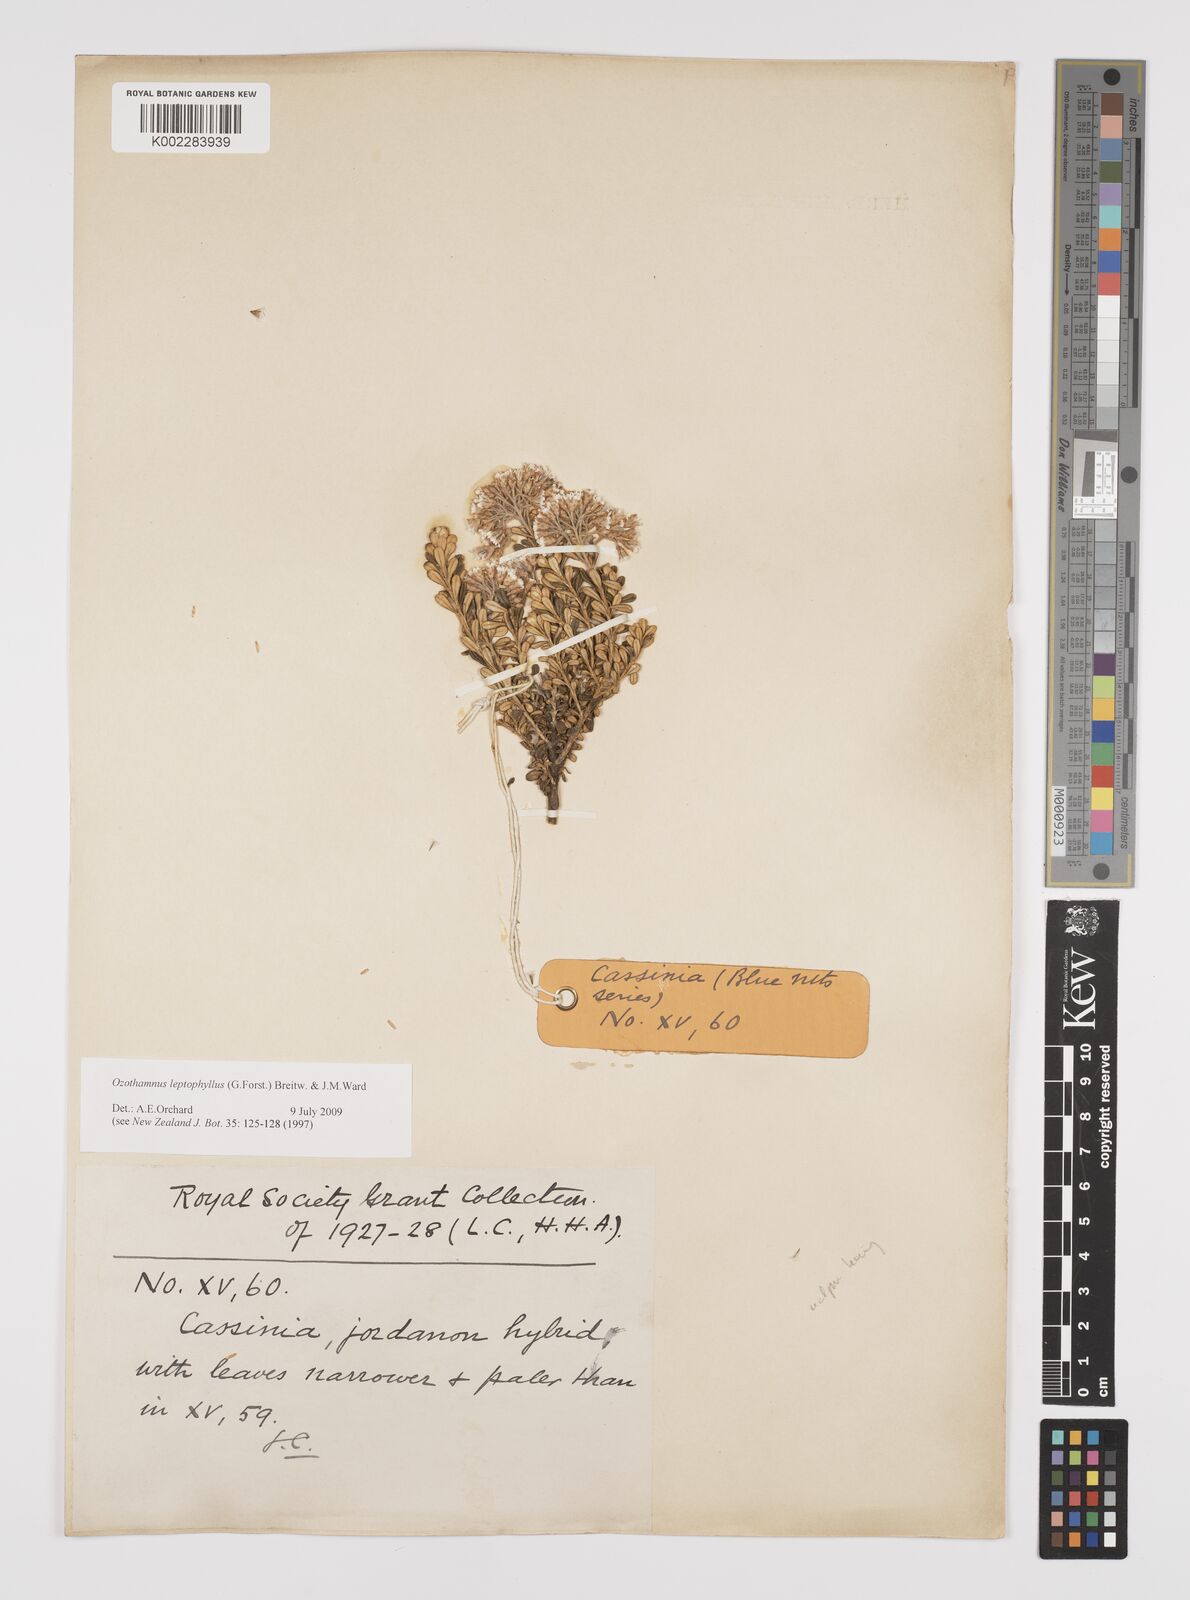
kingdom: Plantae
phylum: Tracheophyta
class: Magnoliopsida
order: Asterales
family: Asteraceae
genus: Ozothamnus
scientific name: Ozothamnus leptophyllus
